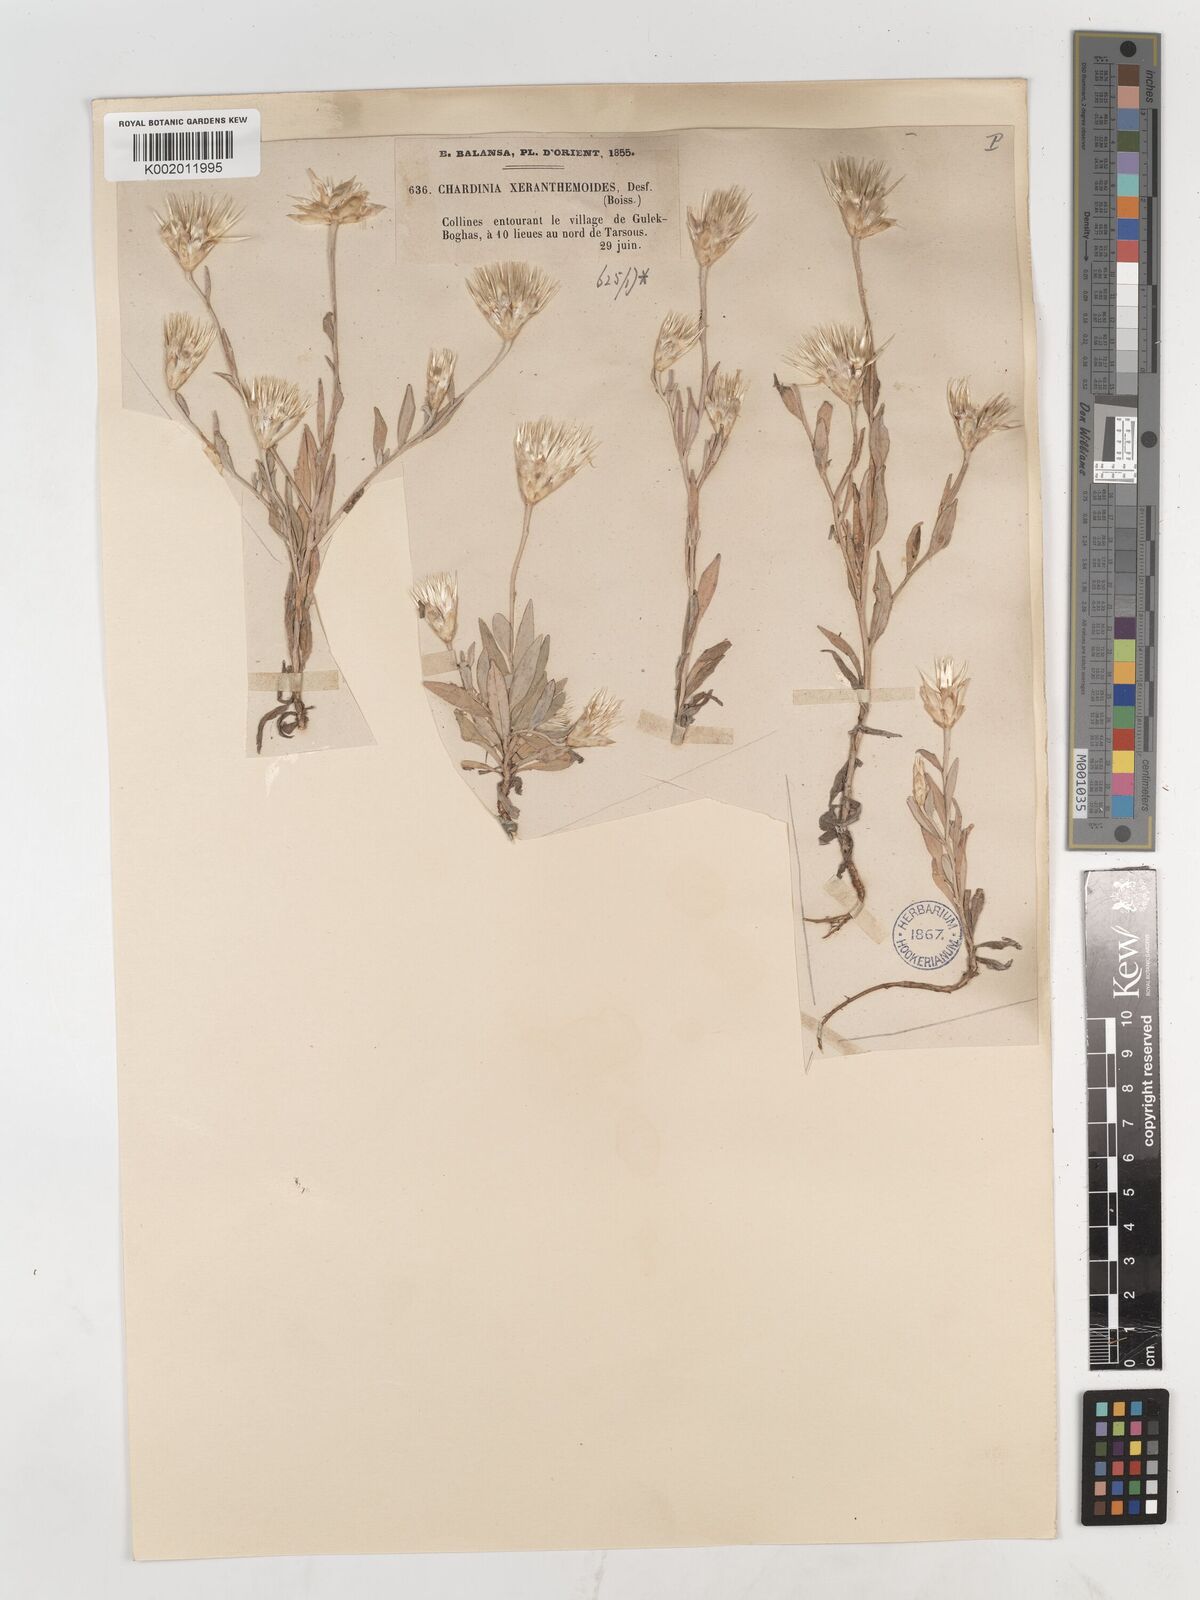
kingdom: Plantae
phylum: Tracheophyta
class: Magnoliopsida
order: Asterales
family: Asteraceae
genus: Chardinia
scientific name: Chardinia orientalis
